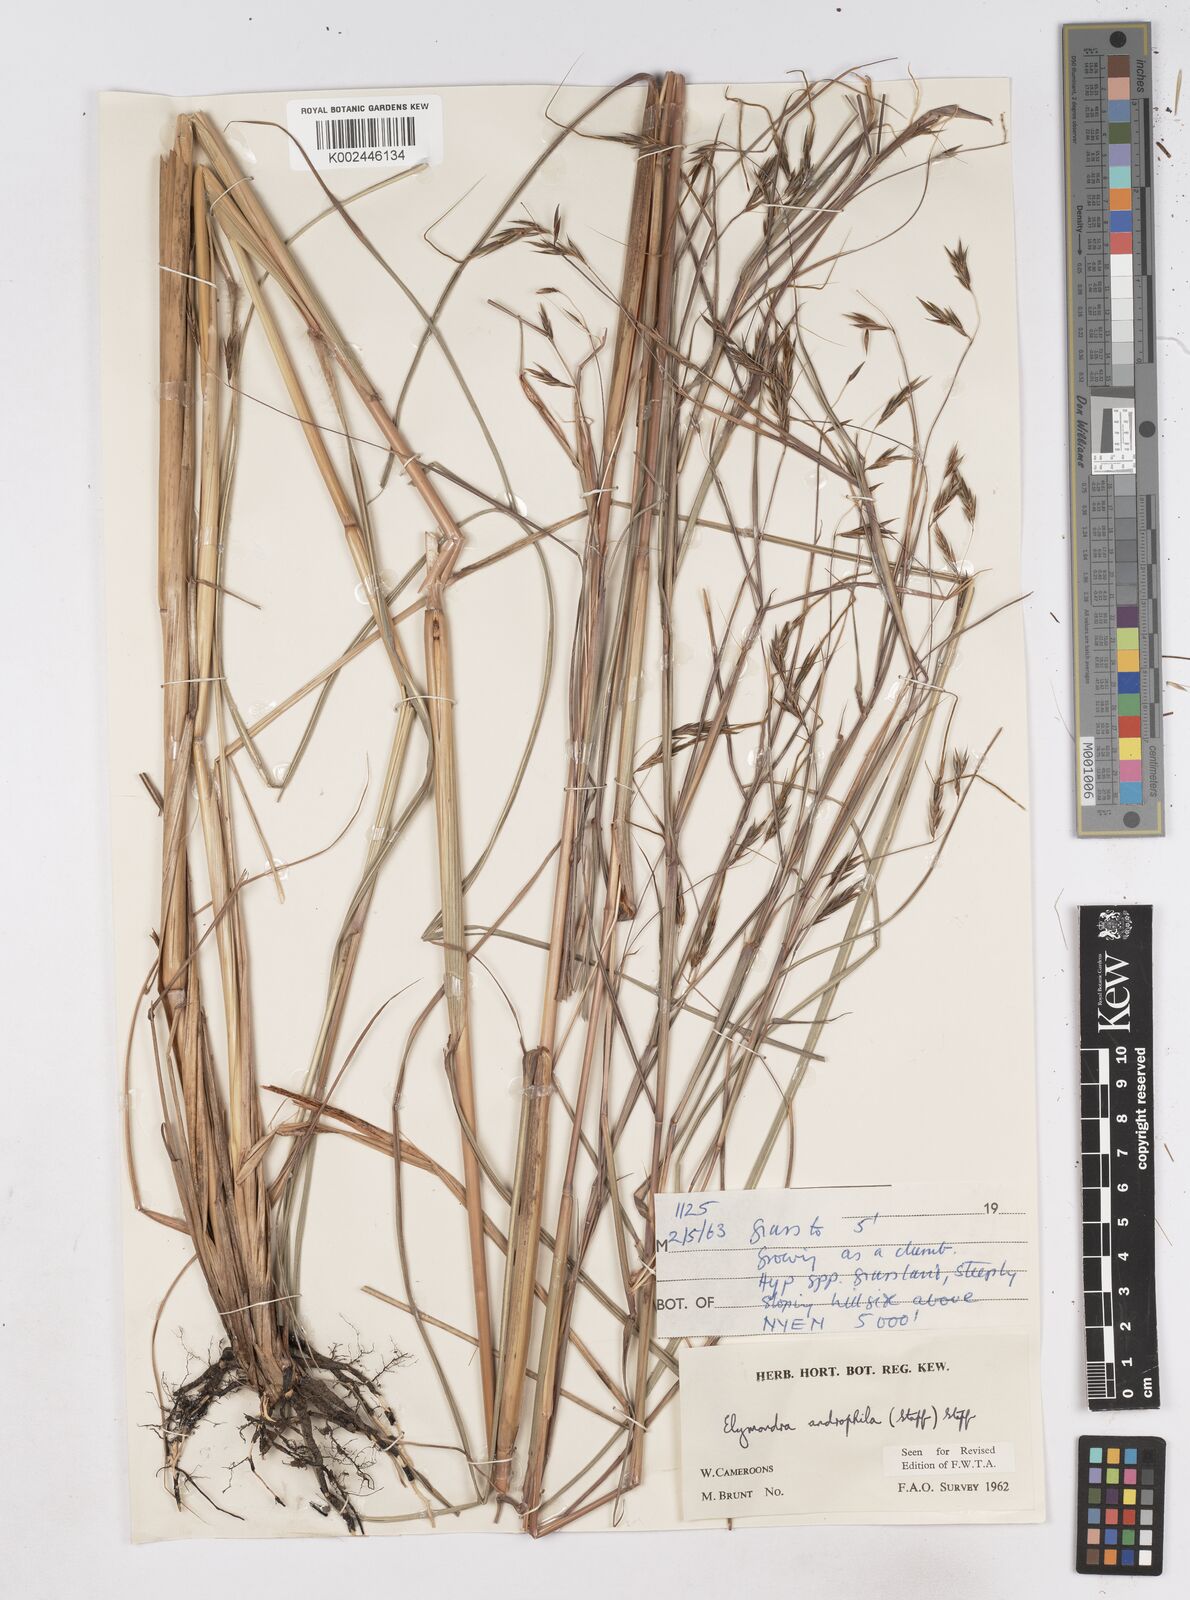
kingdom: Plantae
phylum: Tracheophyta
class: Liliopsida
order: Poales
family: Poaceae
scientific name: Poaceae
